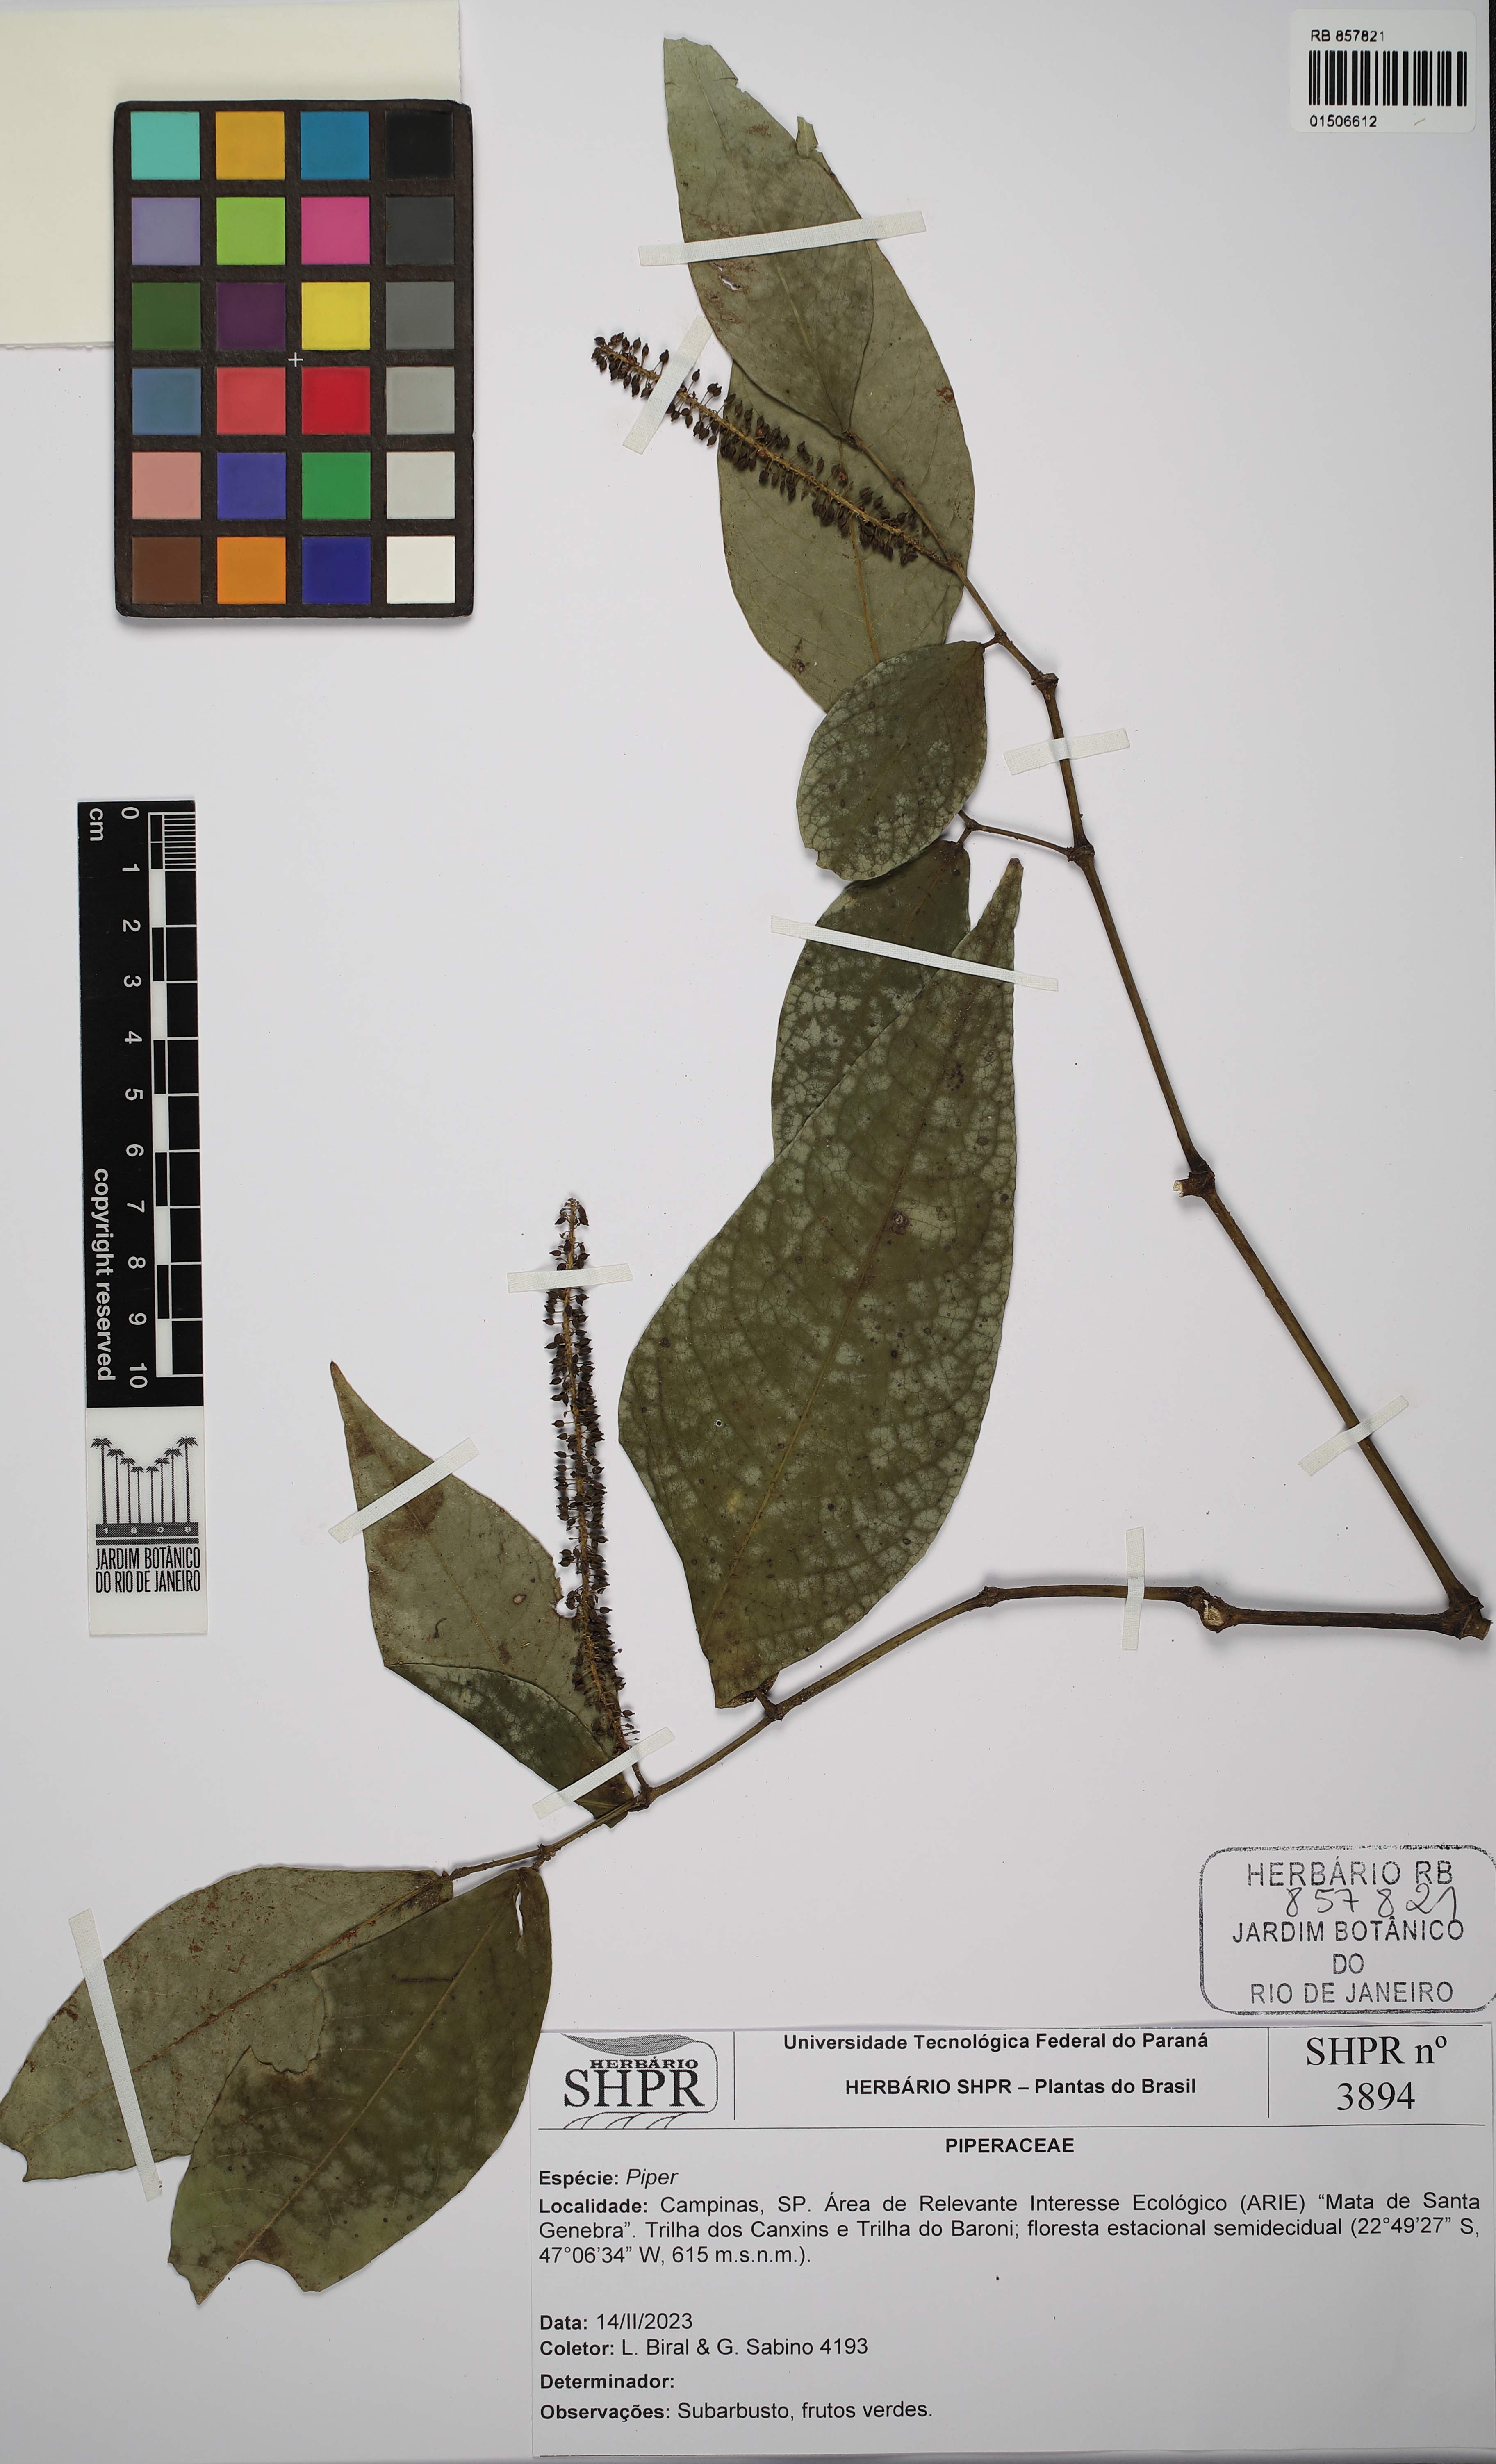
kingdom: Plantae
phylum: Tracheophyta
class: Magnoliopsida
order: Piperales
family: Piperaceae
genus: Piper
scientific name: Piper
